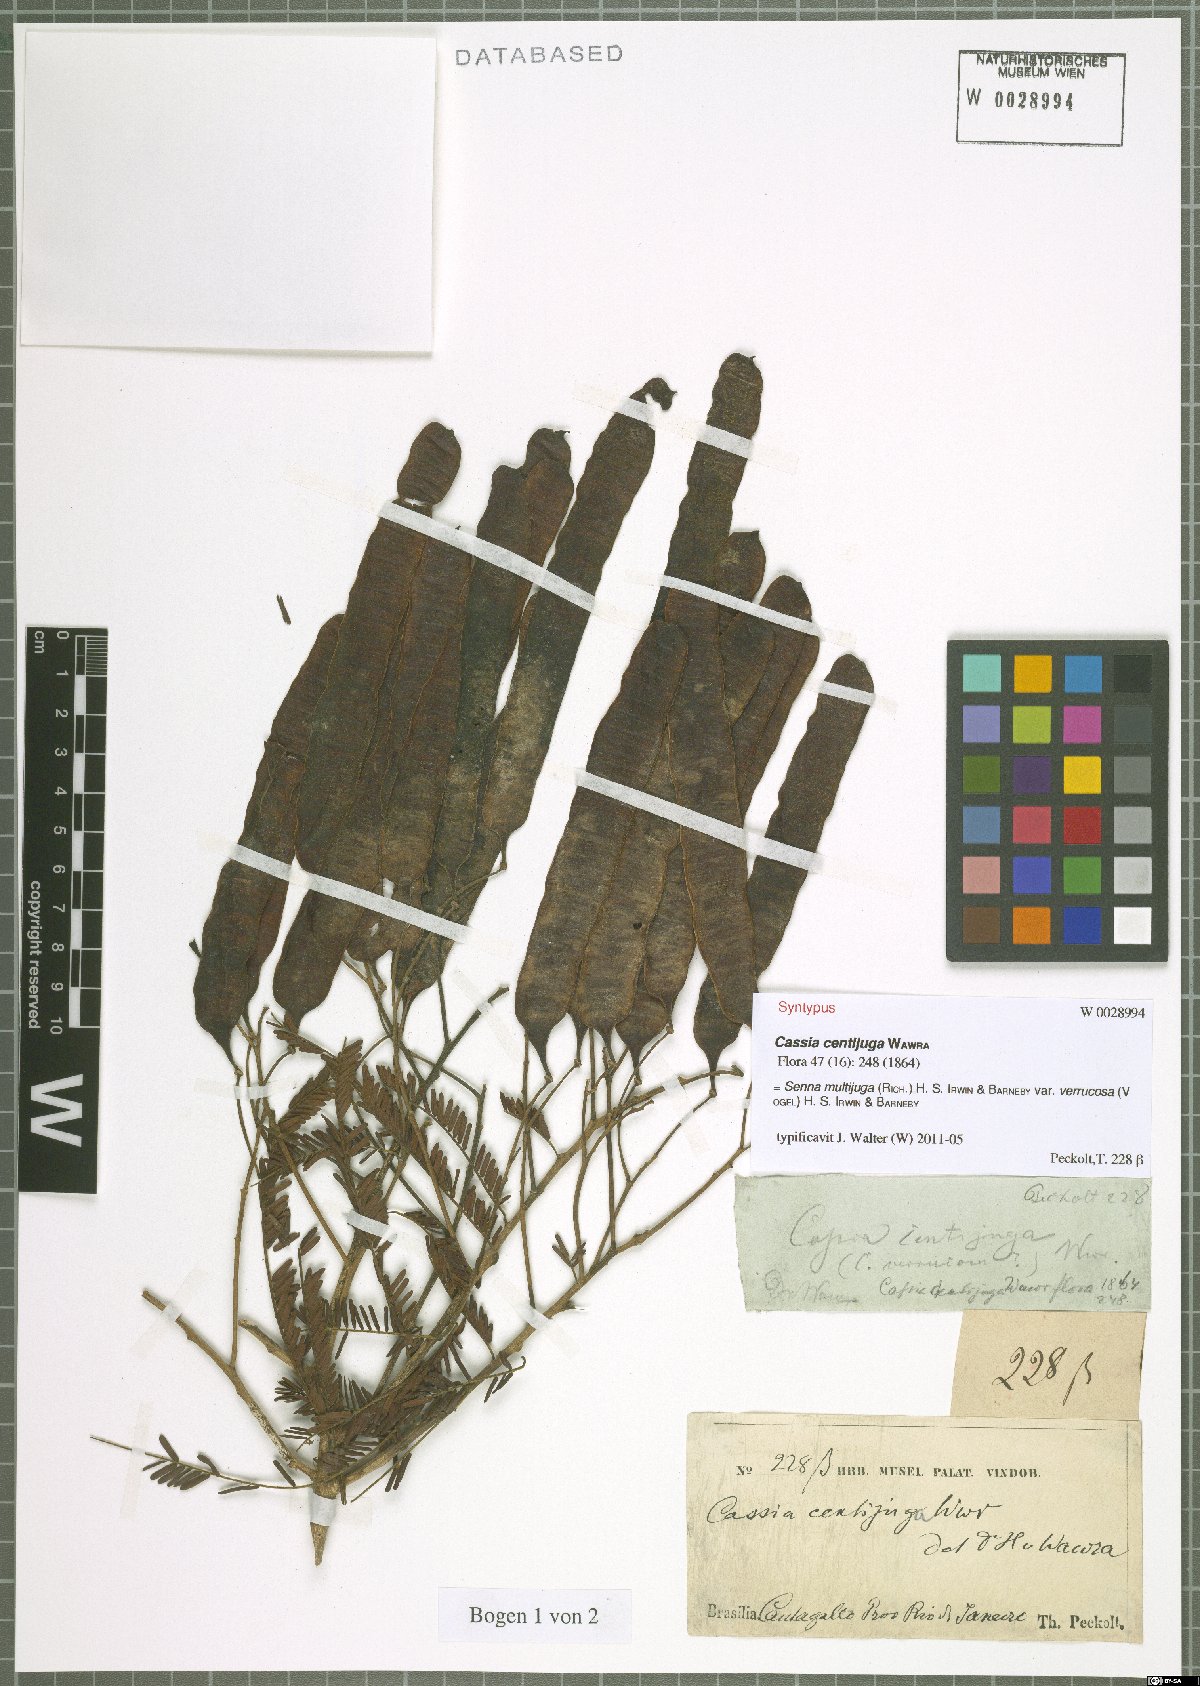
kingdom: Plantae
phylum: Tracheophyta
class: Magnoliopsida
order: Fabales
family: Fabaceae
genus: Senna
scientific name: Senna multijuga
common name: False sicklepod
